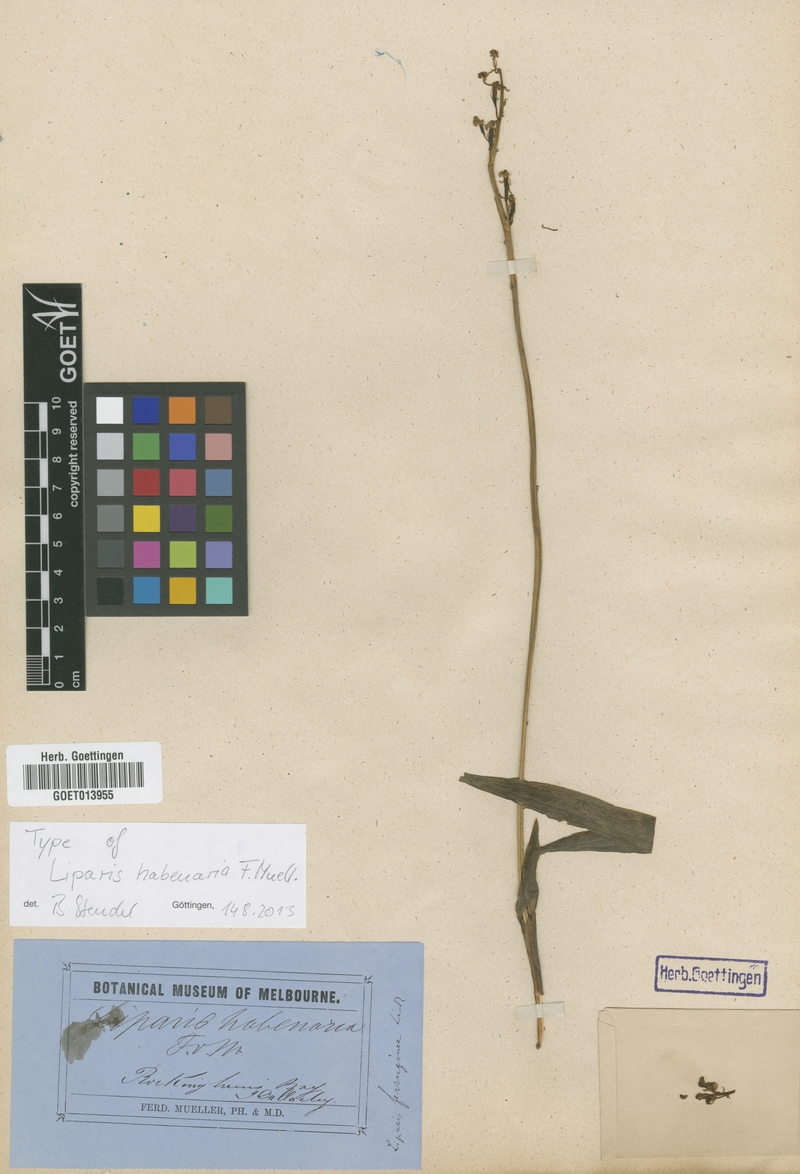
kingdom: Plantae
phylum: Tracheophyta
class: Liliopsida
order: Asparagales
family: Orchidaceae
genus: Liparis
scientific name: Liparis habenarina
